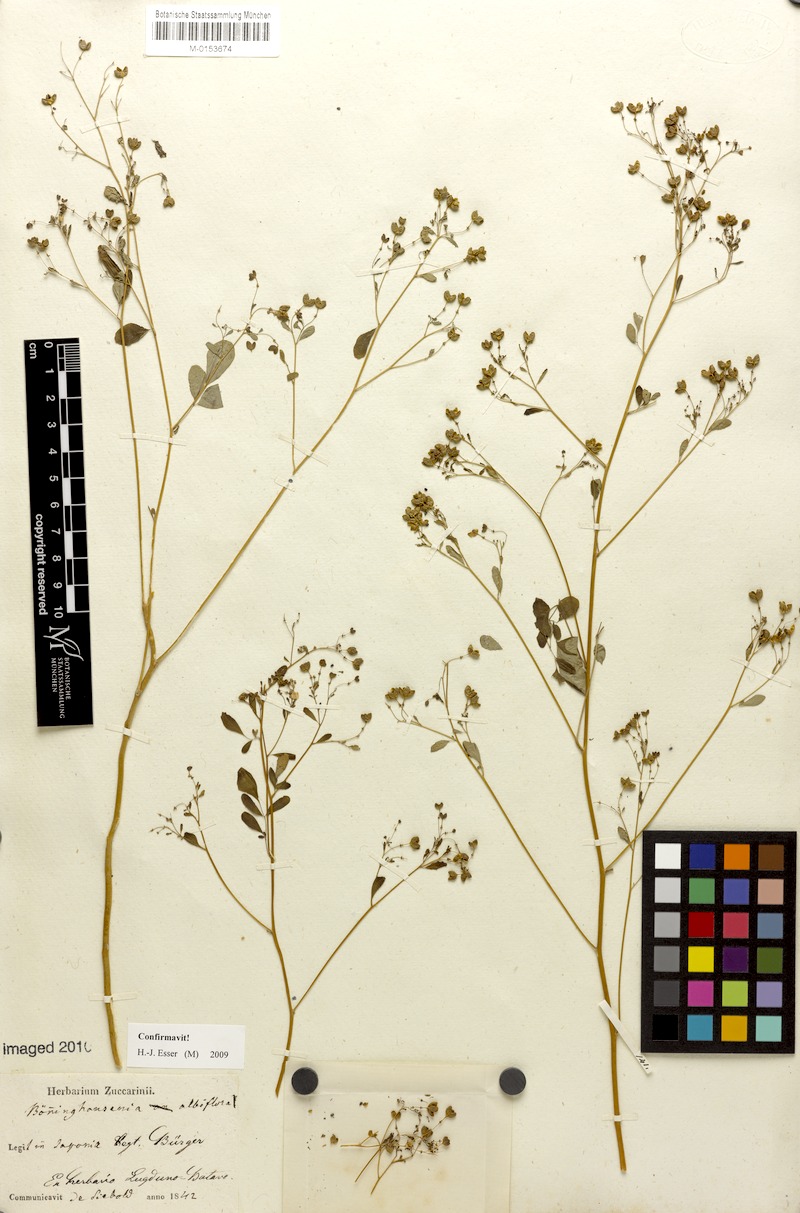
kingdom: Plantae
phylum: Tracheophyta
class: Magnoliopsida
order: Sapindales
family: Rutaceae
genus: Boenninghausenia
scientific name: Boenninghausenia albiflora
